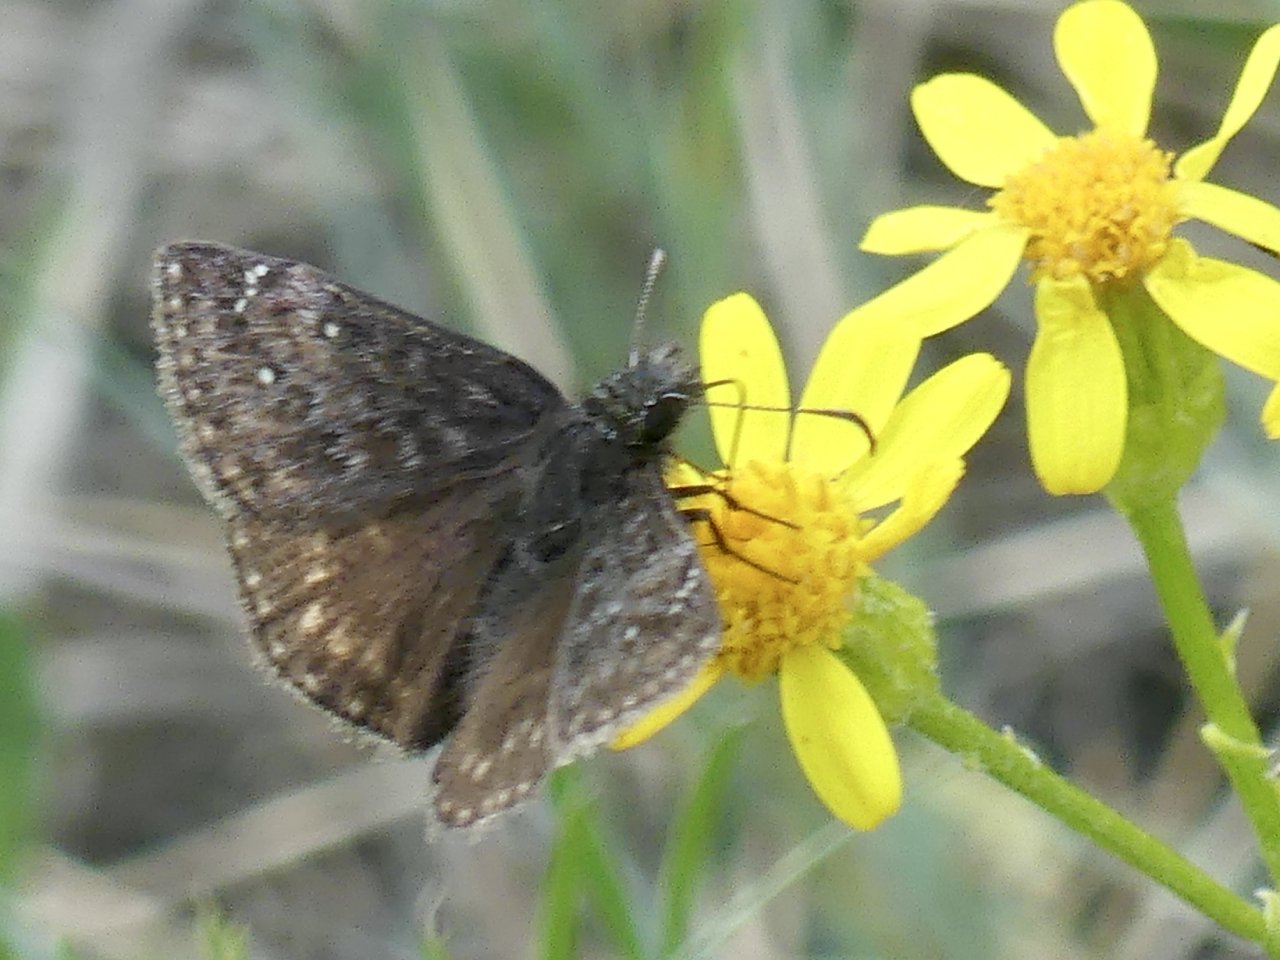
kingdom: Animalia
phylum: Arthropoda
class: Insecta
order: Lepidoptera
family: Hesperiidae
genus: Gesta
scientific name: Gesta
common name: Persius Duskywing
